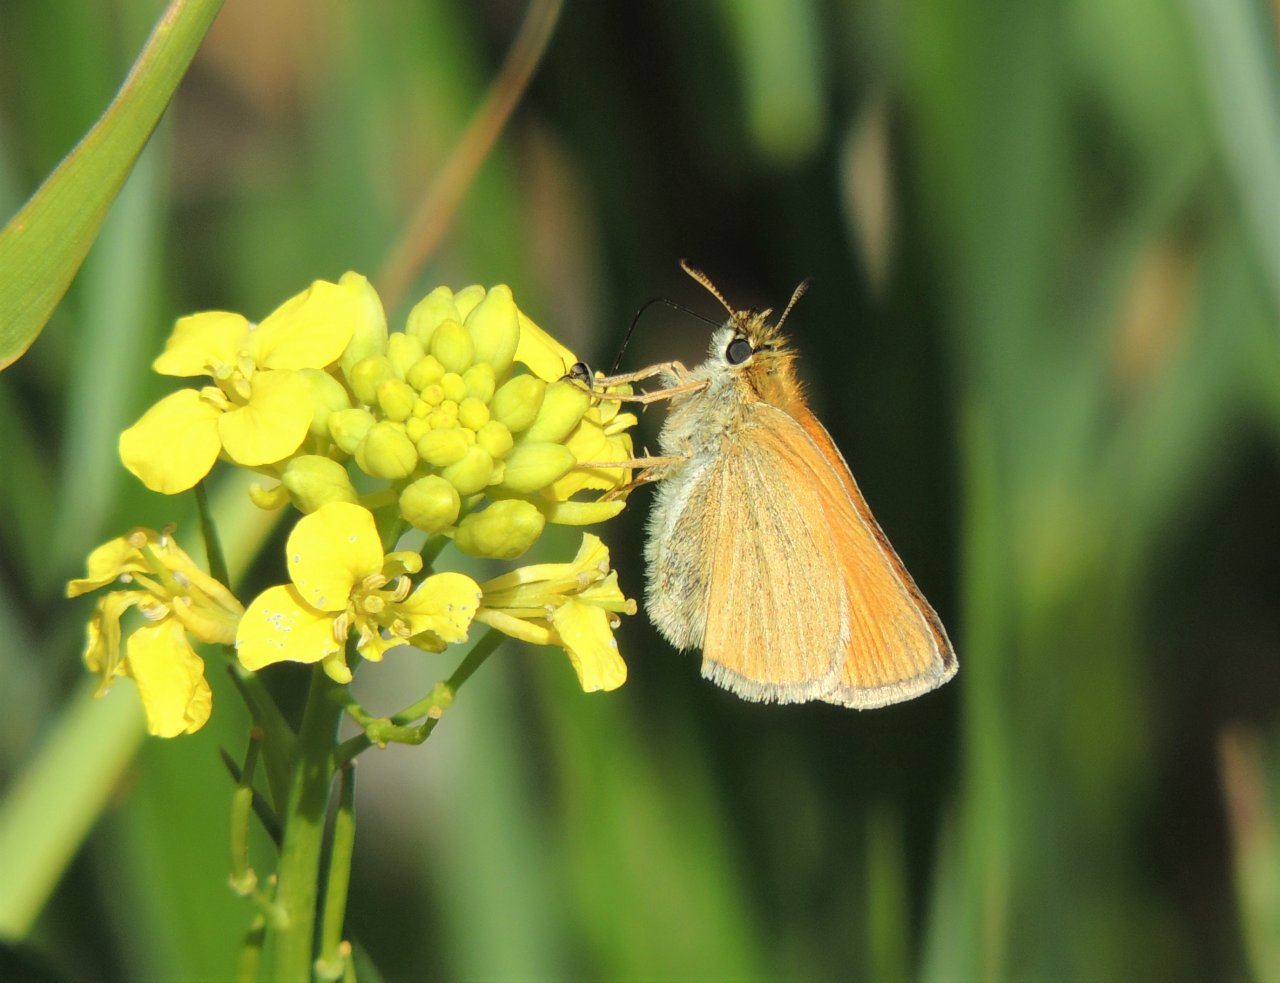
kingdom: Animalia
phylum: Arthropoda
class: Insecta
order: Lepidoptera
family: Hesperiidae
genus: Thymelicus
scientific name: Thymelicus lineola
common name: European Skipper
